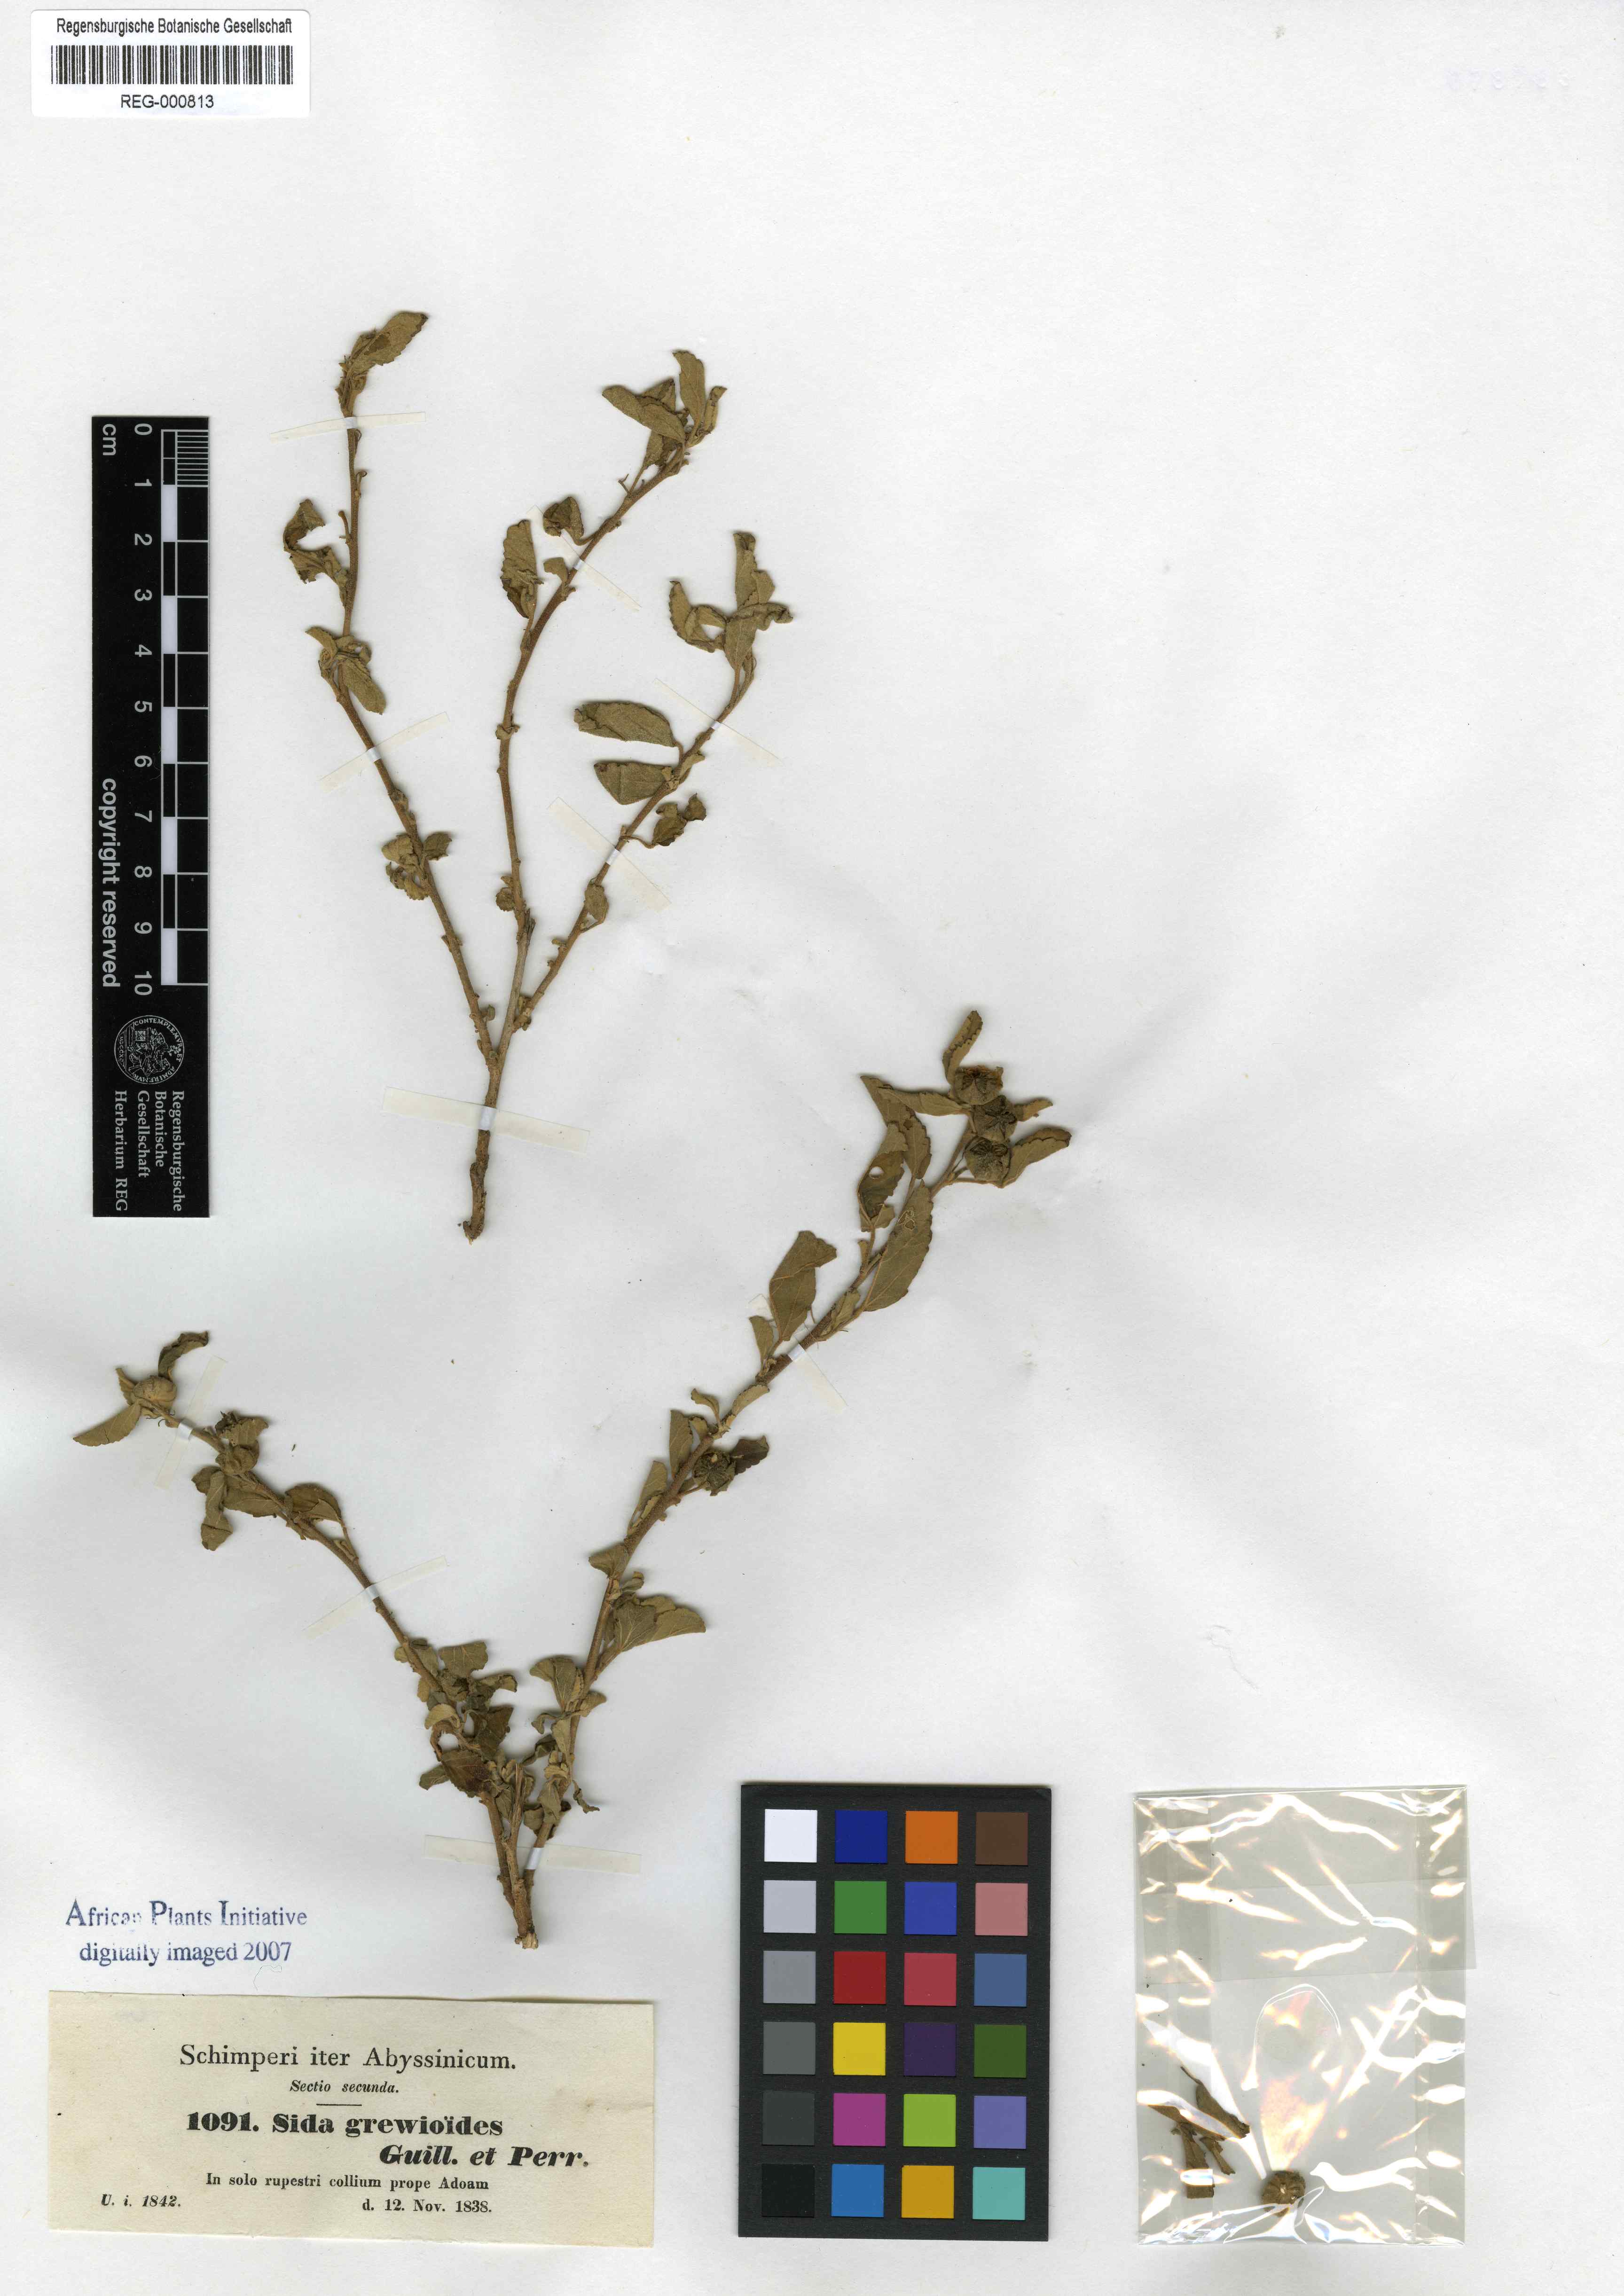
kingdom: Plantae
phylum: Tracheophyta
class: Magnoliopsida
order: Malvales
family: Malvaceae
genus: Sida
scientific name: Sida ovata
